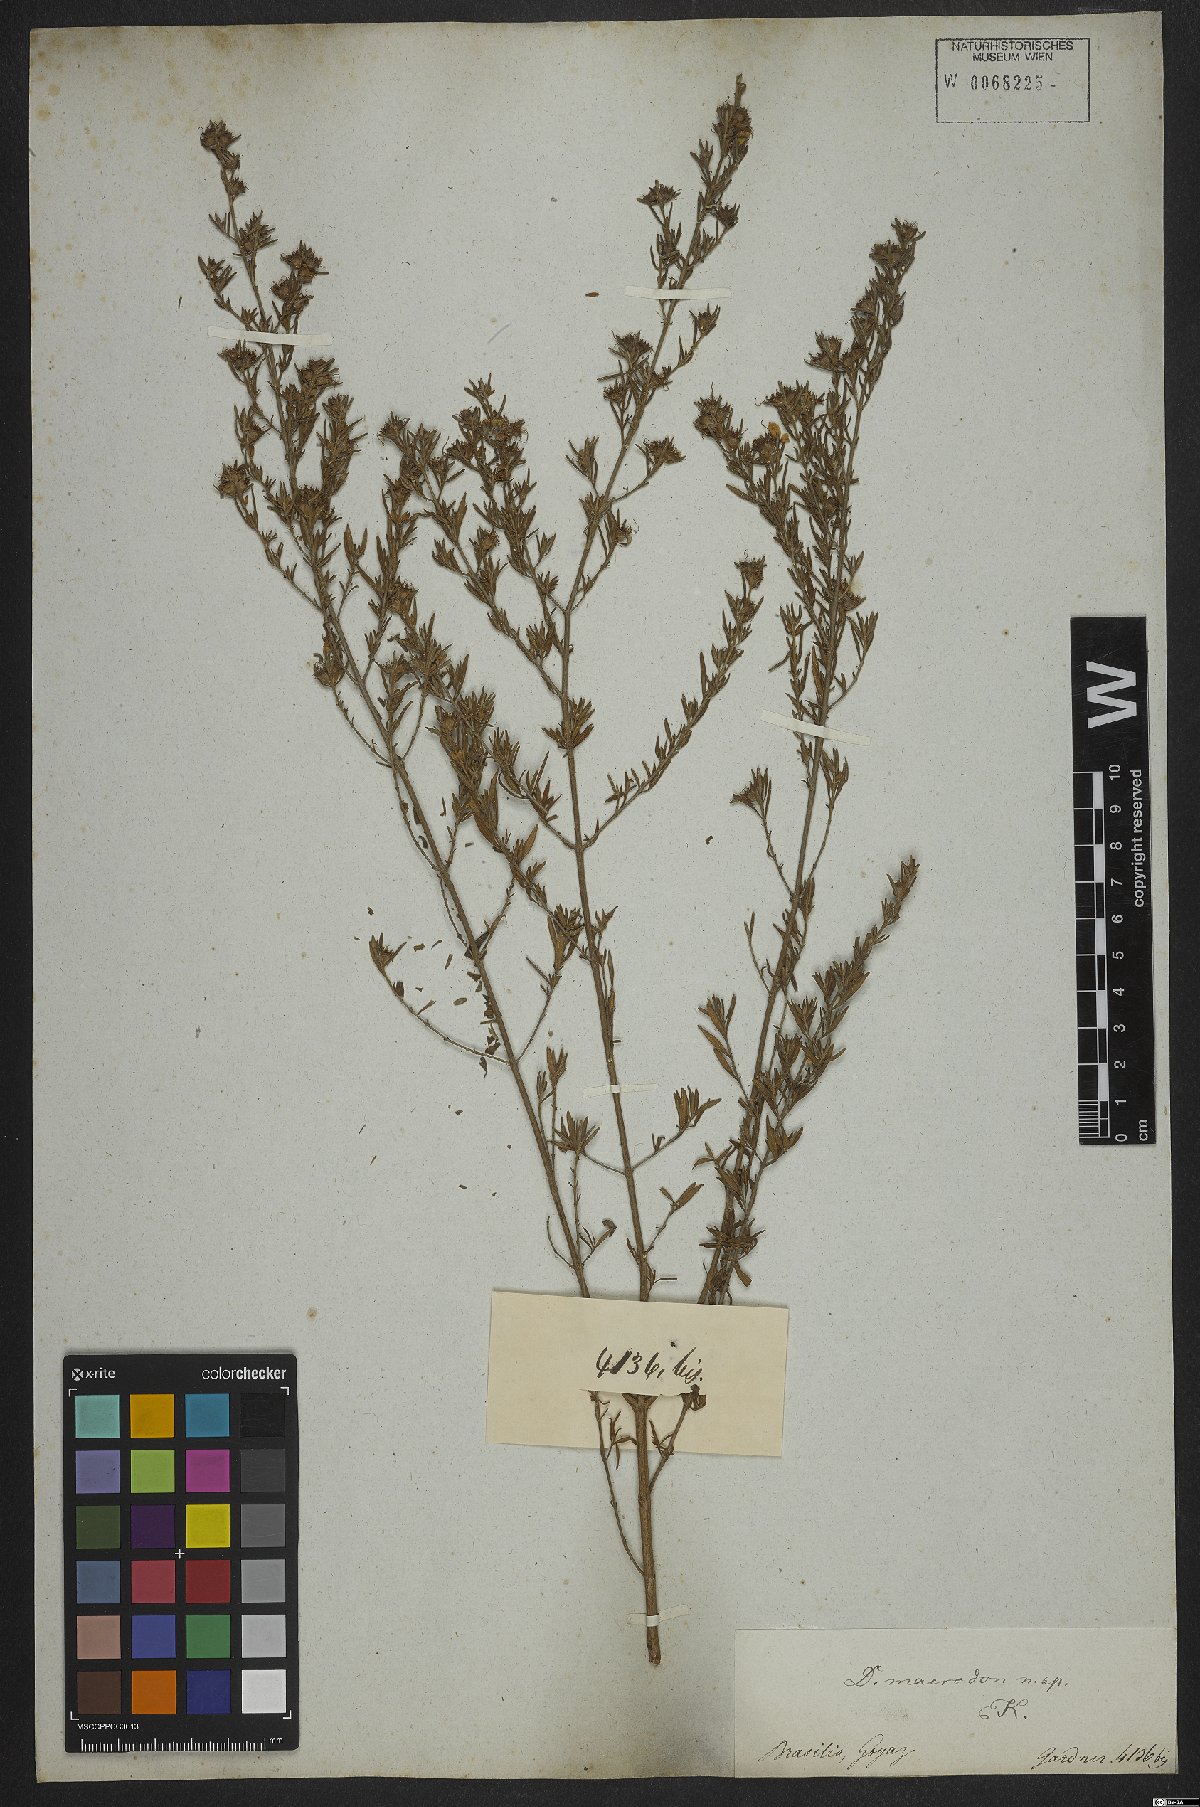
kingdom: Plantae
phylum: Tracheophyta
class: Magnoliopsida
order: Myrtales
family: Lythraceae
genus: Diplusodon
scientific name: Diplusodon macrodon
